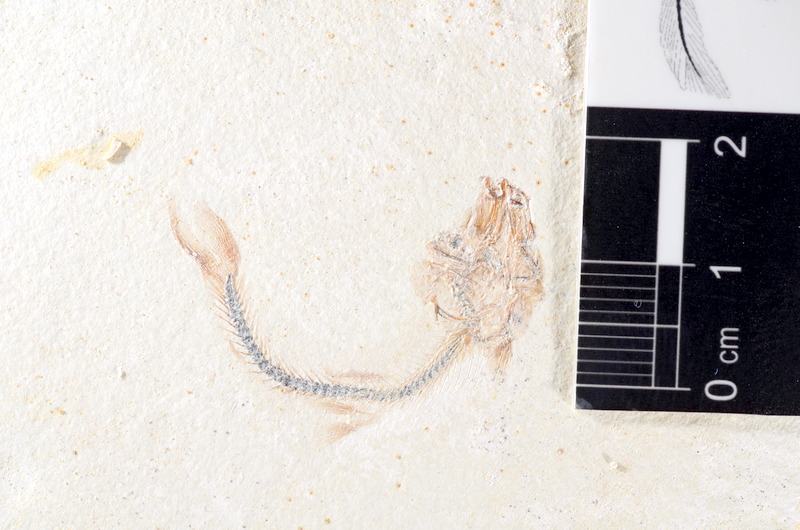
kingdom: Animalia
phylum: Chordata
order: Salmoniformes
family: Orthogonikleithridae
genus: Orthogonikleithrus
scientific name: Orthogonikleithrus hoelli
